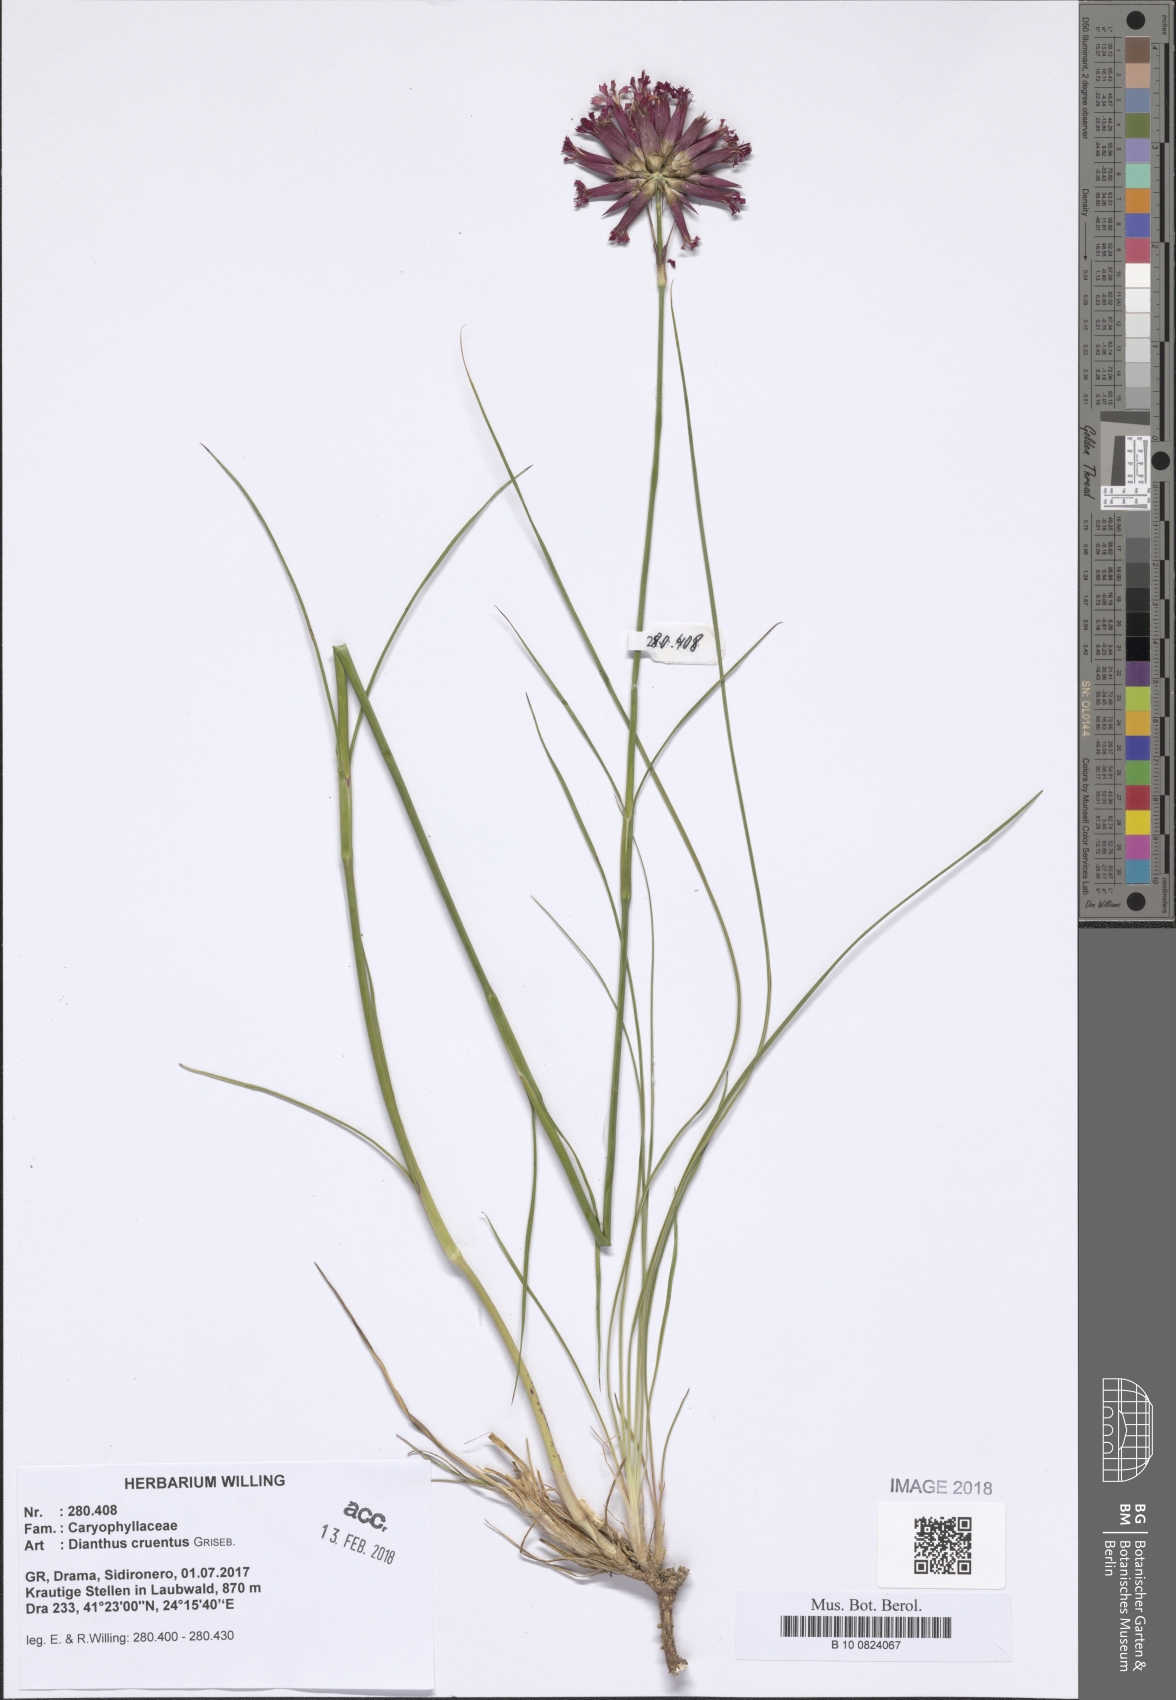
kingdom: Plantae
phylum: Tracheophyta
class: Magnoliopsida
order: Caryophyllales
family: Caryophyllaceae
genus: Dianthus
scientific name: Dianthus cruentus
